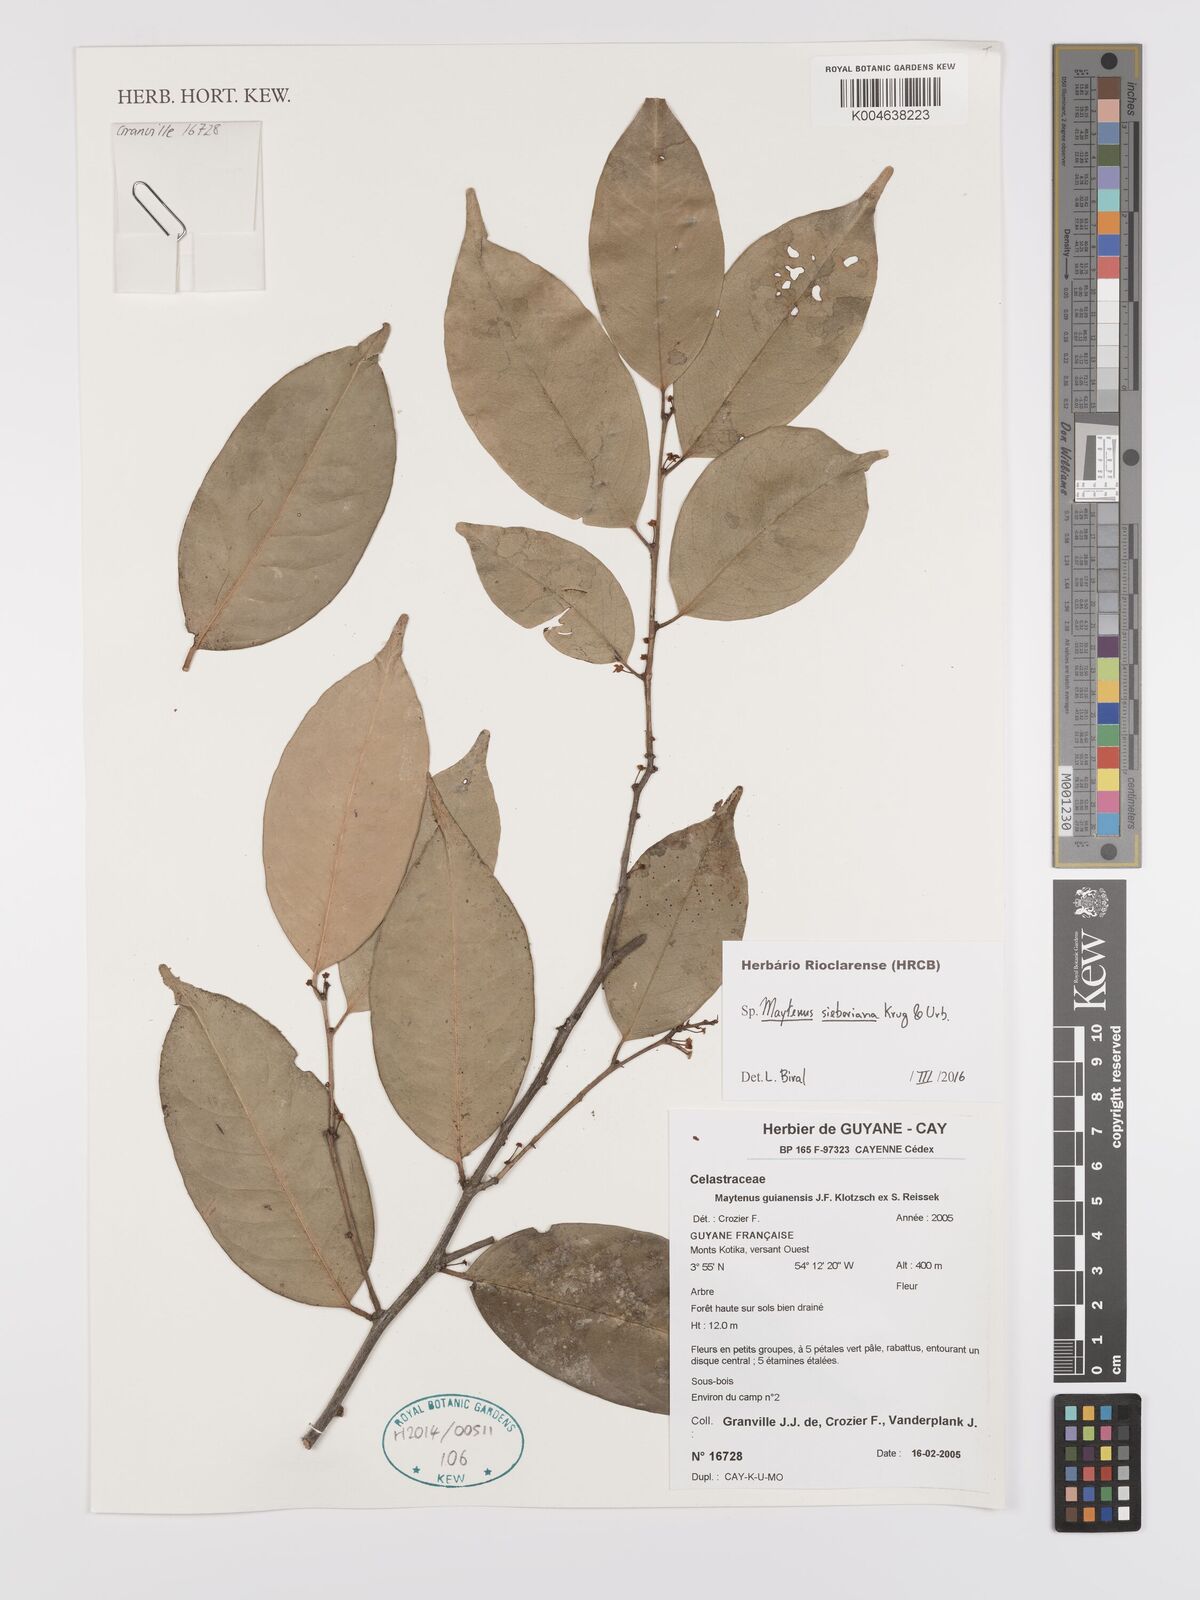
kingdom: Plantae
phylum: Tracheophyta
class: Magnoliopsida
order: Celastrales
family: Celastraceae
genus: Monteverdia
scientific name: Monteverdia sieberiana
